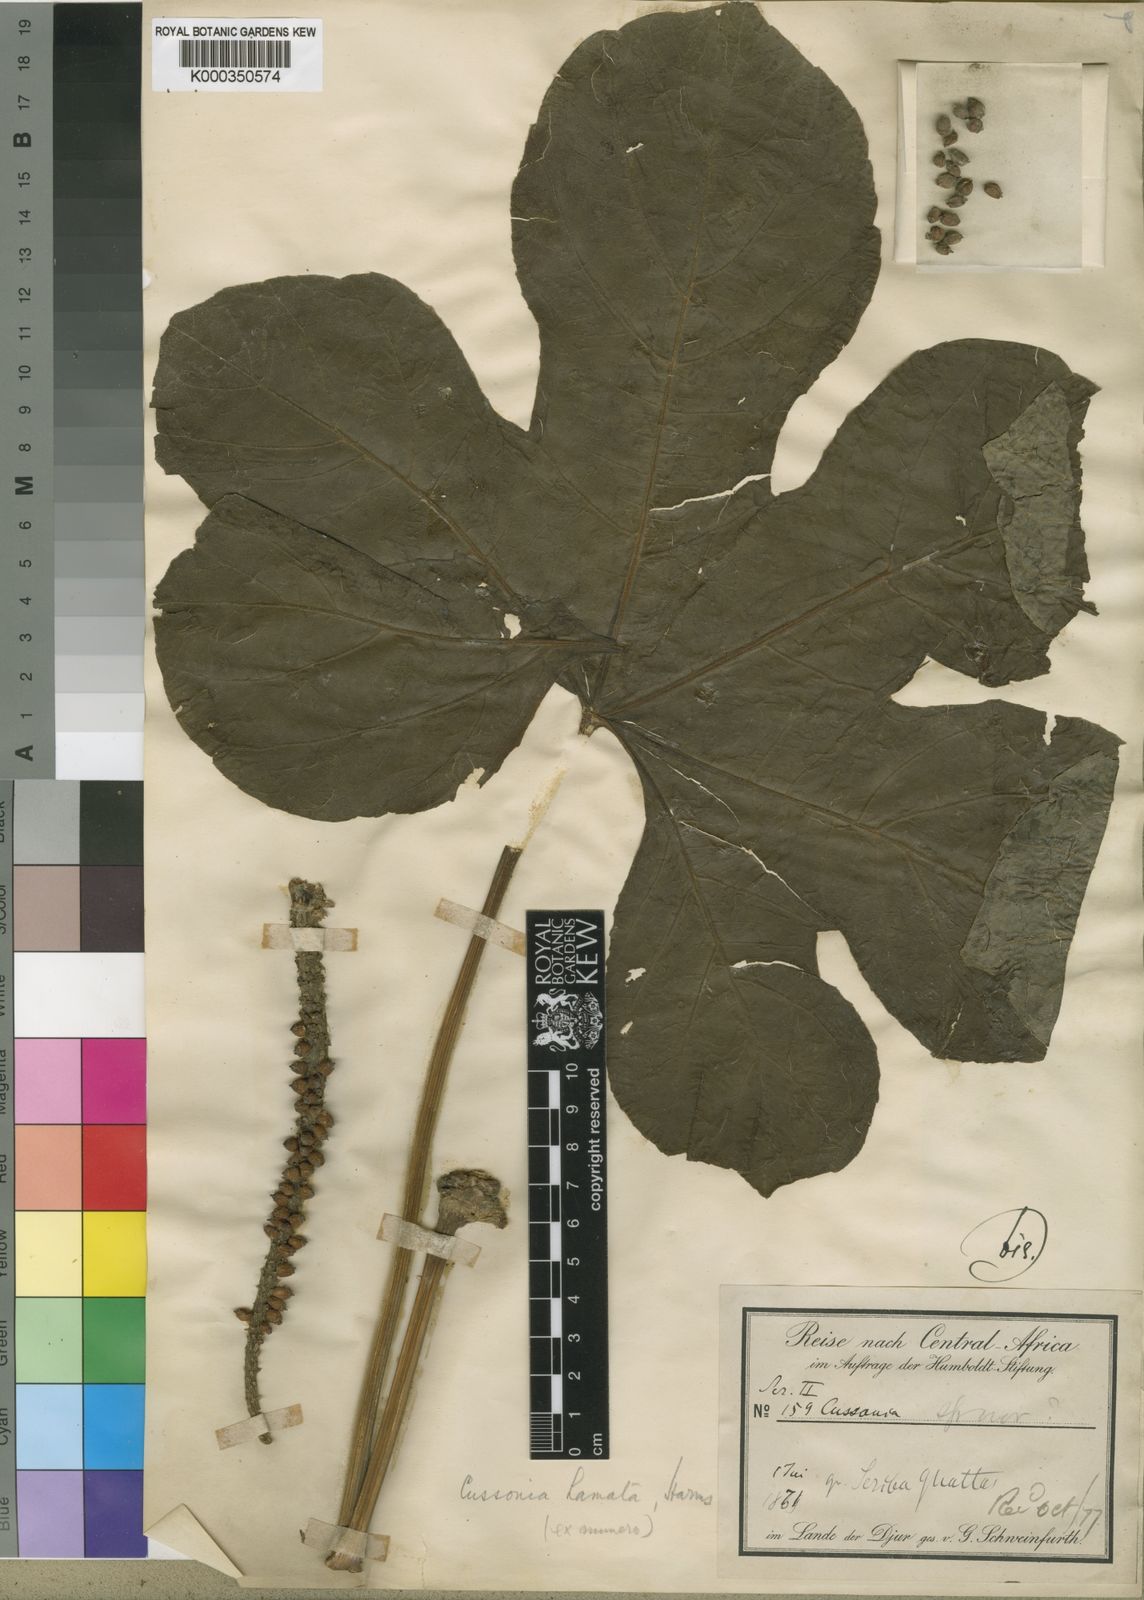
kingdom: Plantae
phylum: Tracheophyta
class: Magnoliopsida
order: Apiales
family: Araliaceae
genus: Cussonia
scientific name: Cussonia arborea
